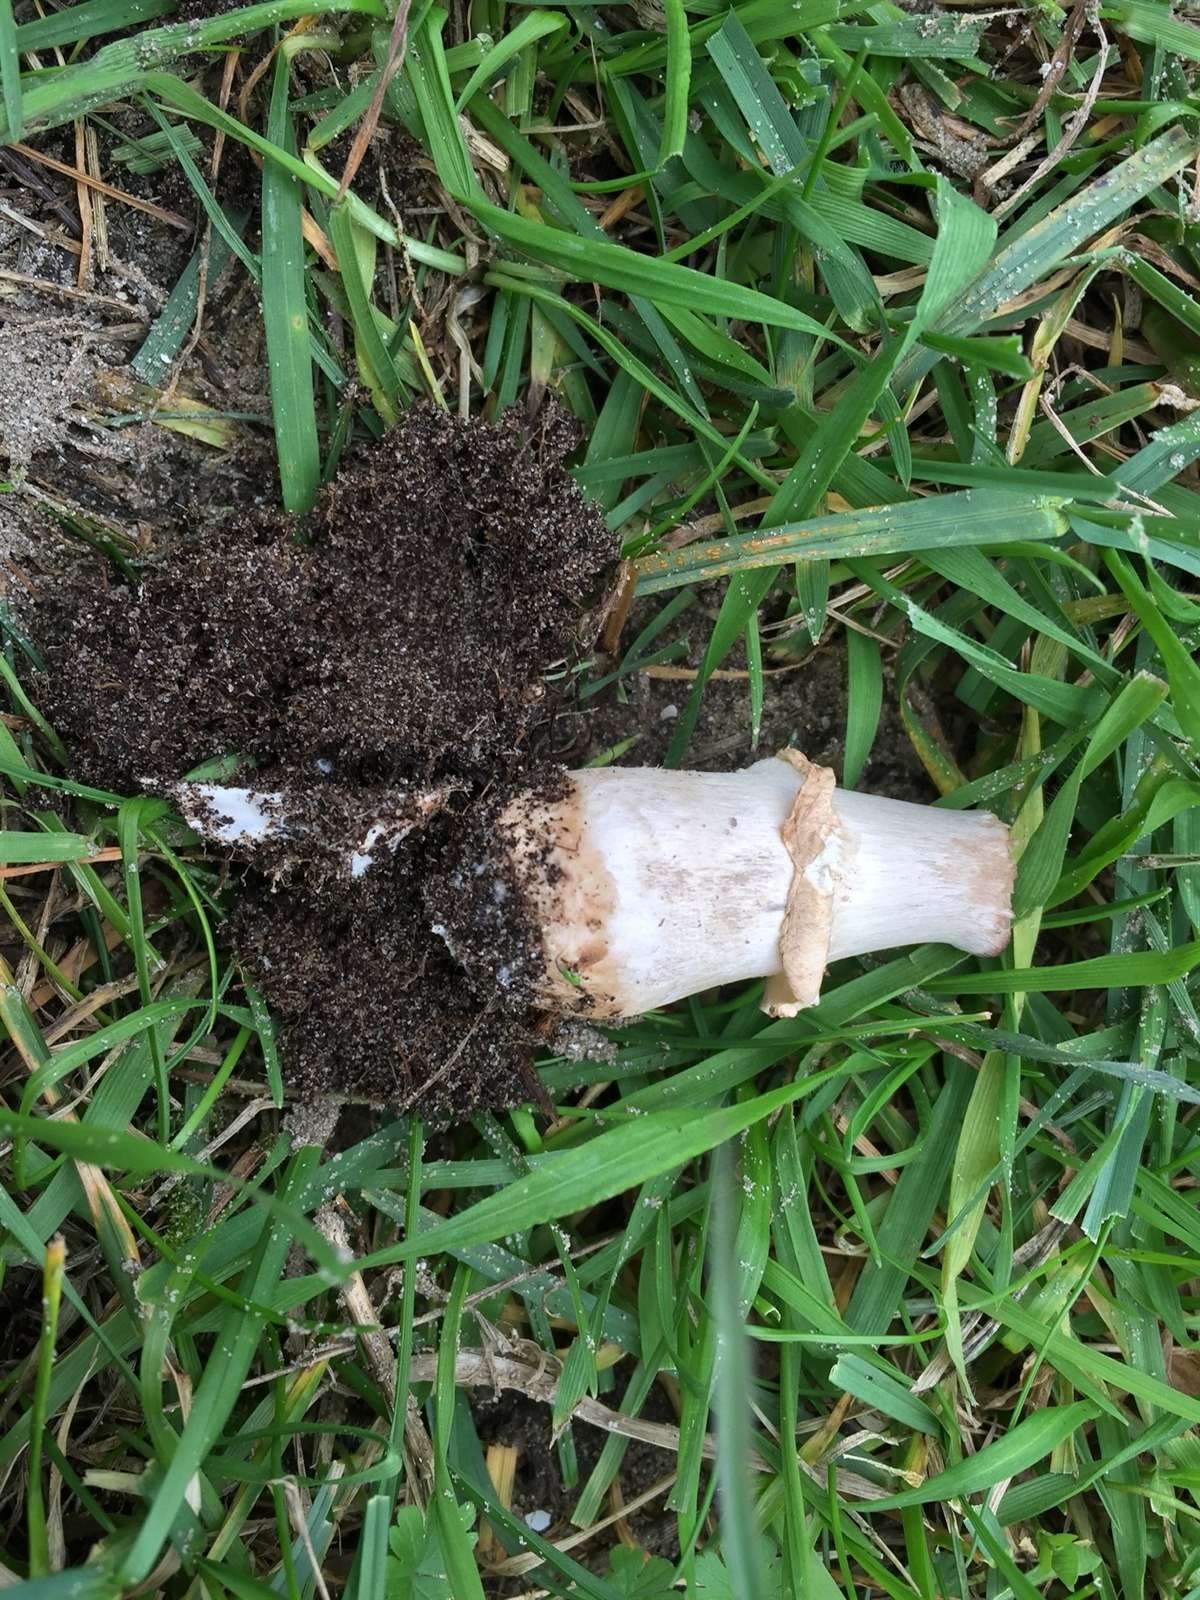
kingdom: Fungi
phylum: Basidiomycota
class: Agaricomycetes
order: Agaricales
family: Agaricaceae
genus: Agaricus
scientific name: Agaricus litoralis
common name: Coastal mushoom
